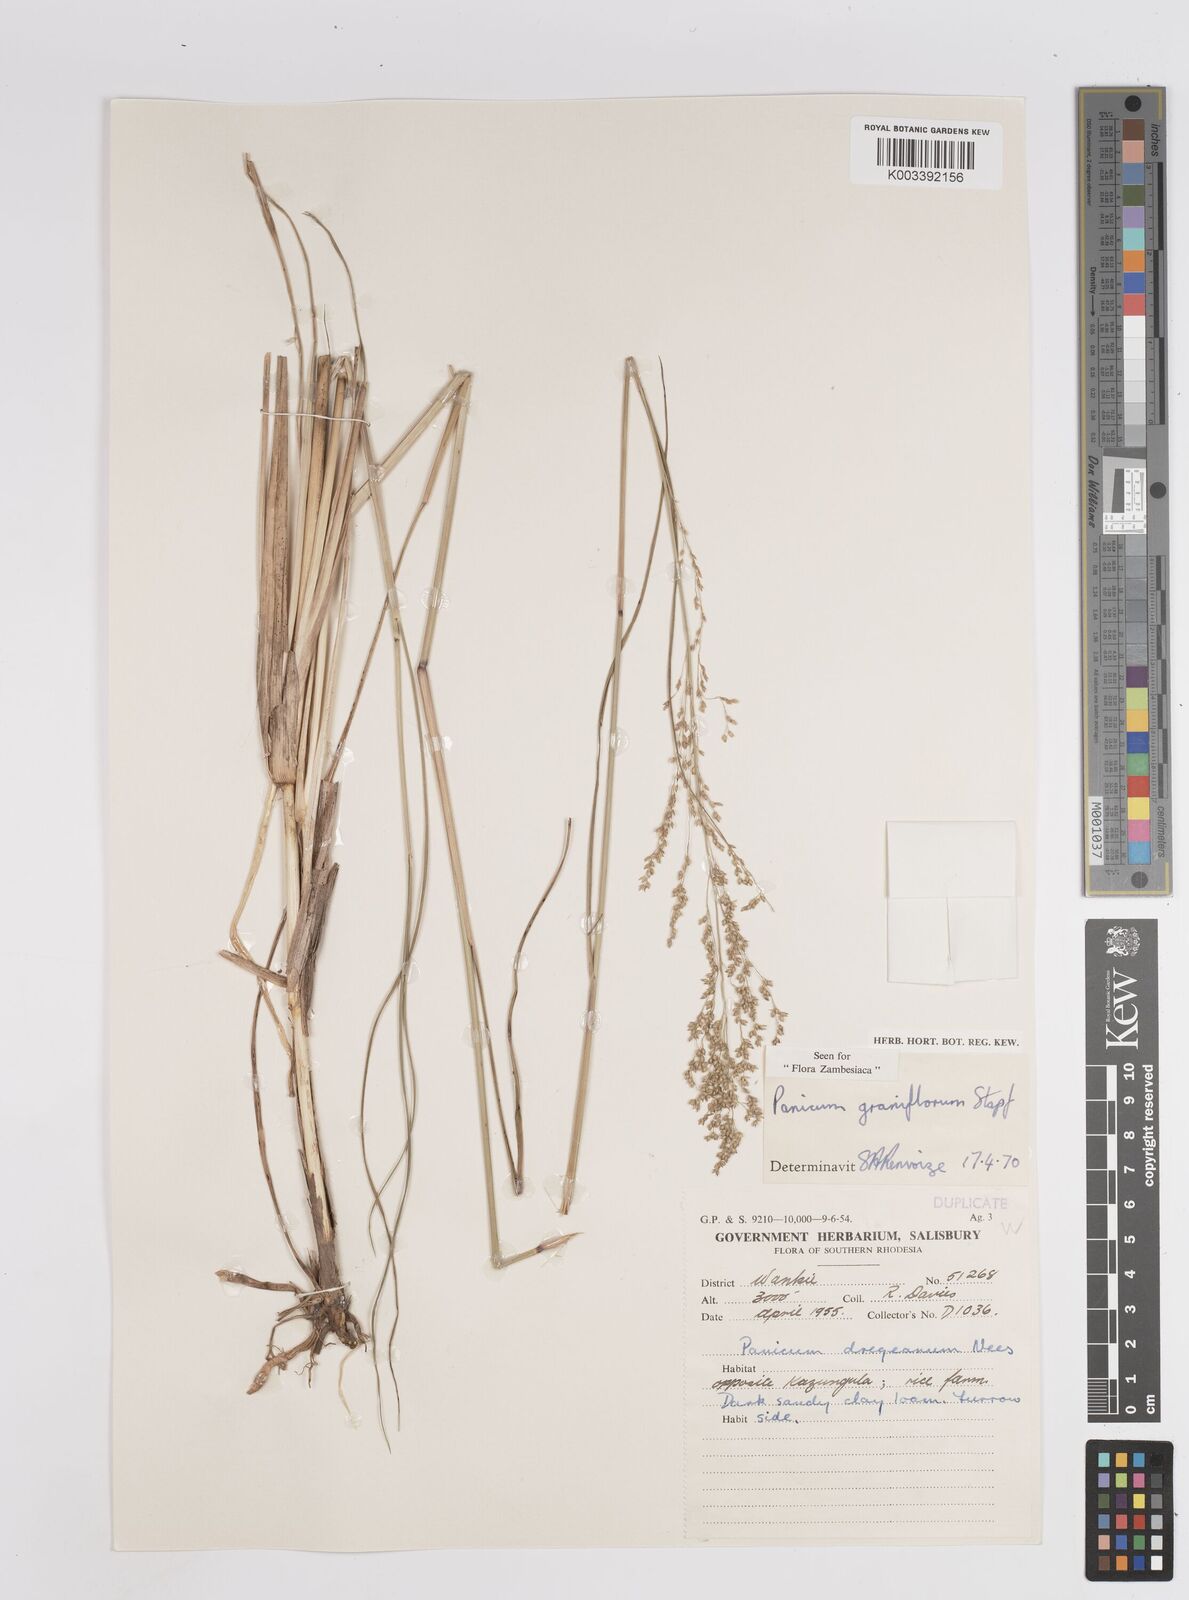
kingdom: Plantae
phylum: Tracheophyta
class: Liliopsida
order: Poales
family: Poaceae
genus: Panicum
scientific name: Panicum graniflorum
